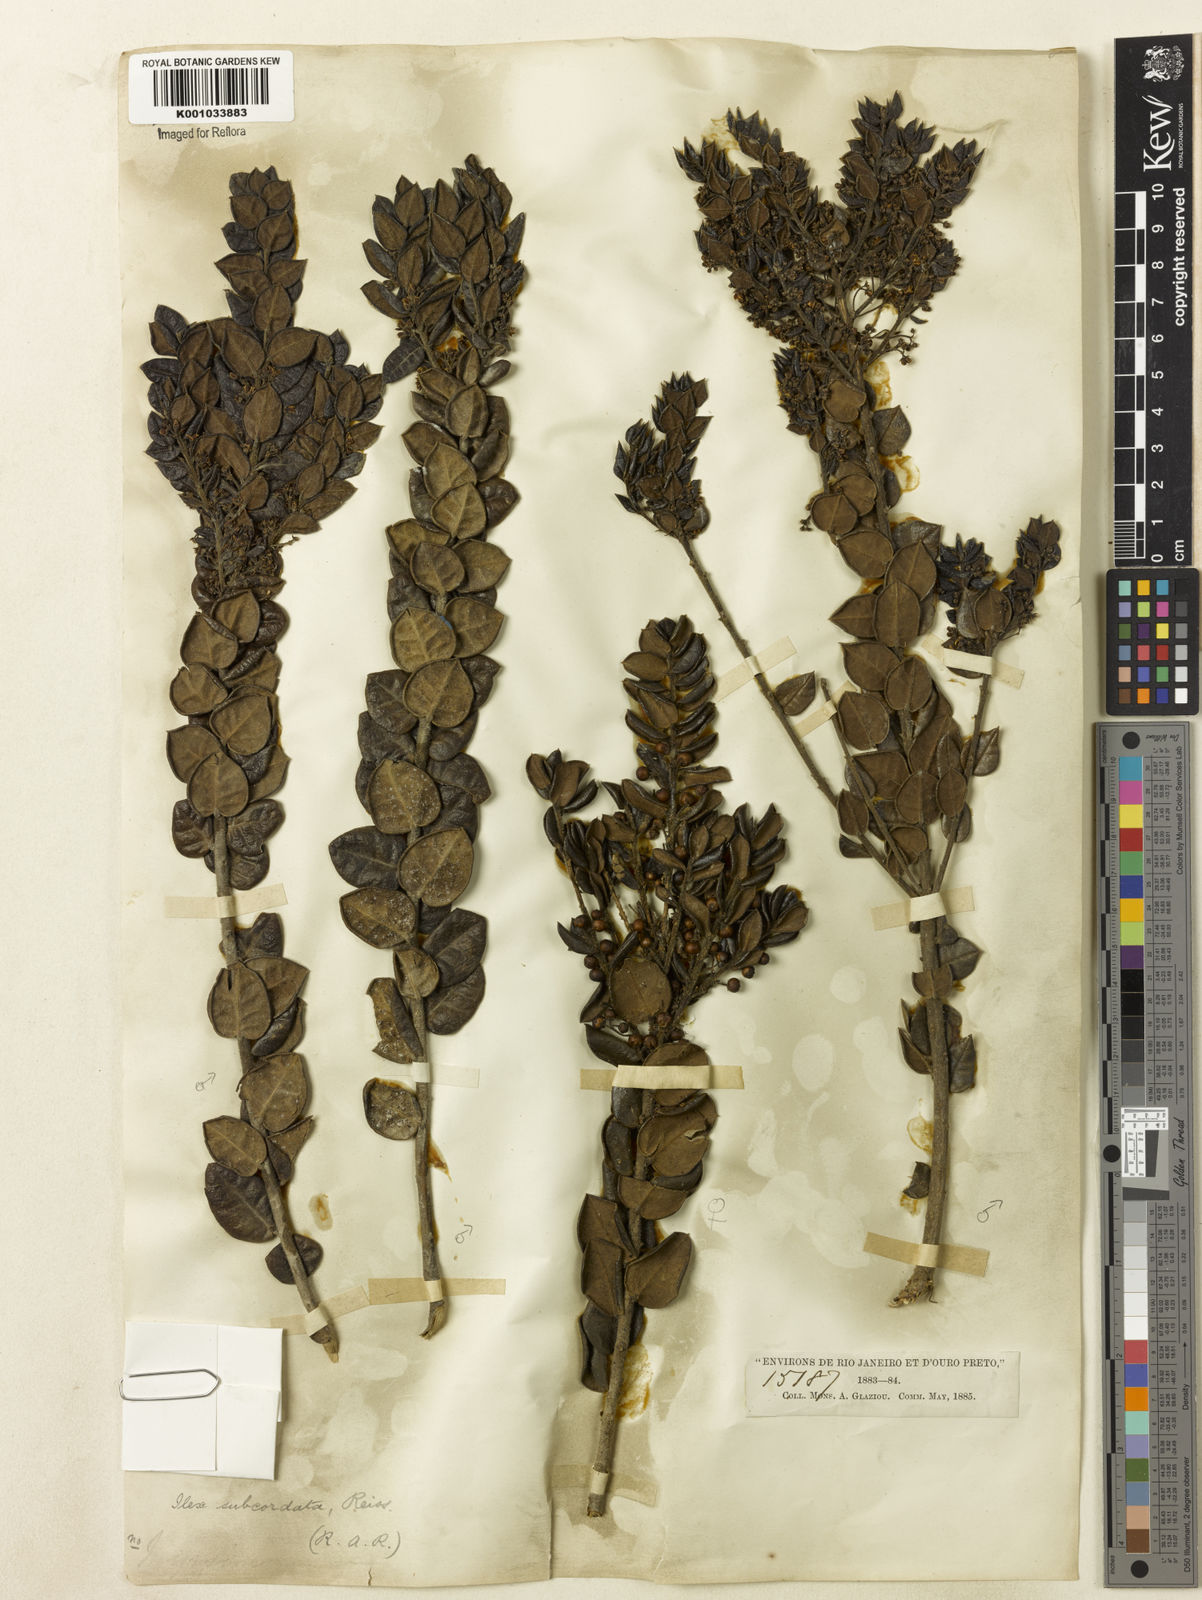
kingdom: Plantae
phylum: Tracheophyta
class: Magnoliopsida
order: Aquifoliales
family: Aquifoliaceae
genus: Ilex
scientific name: Ilex subcordata
